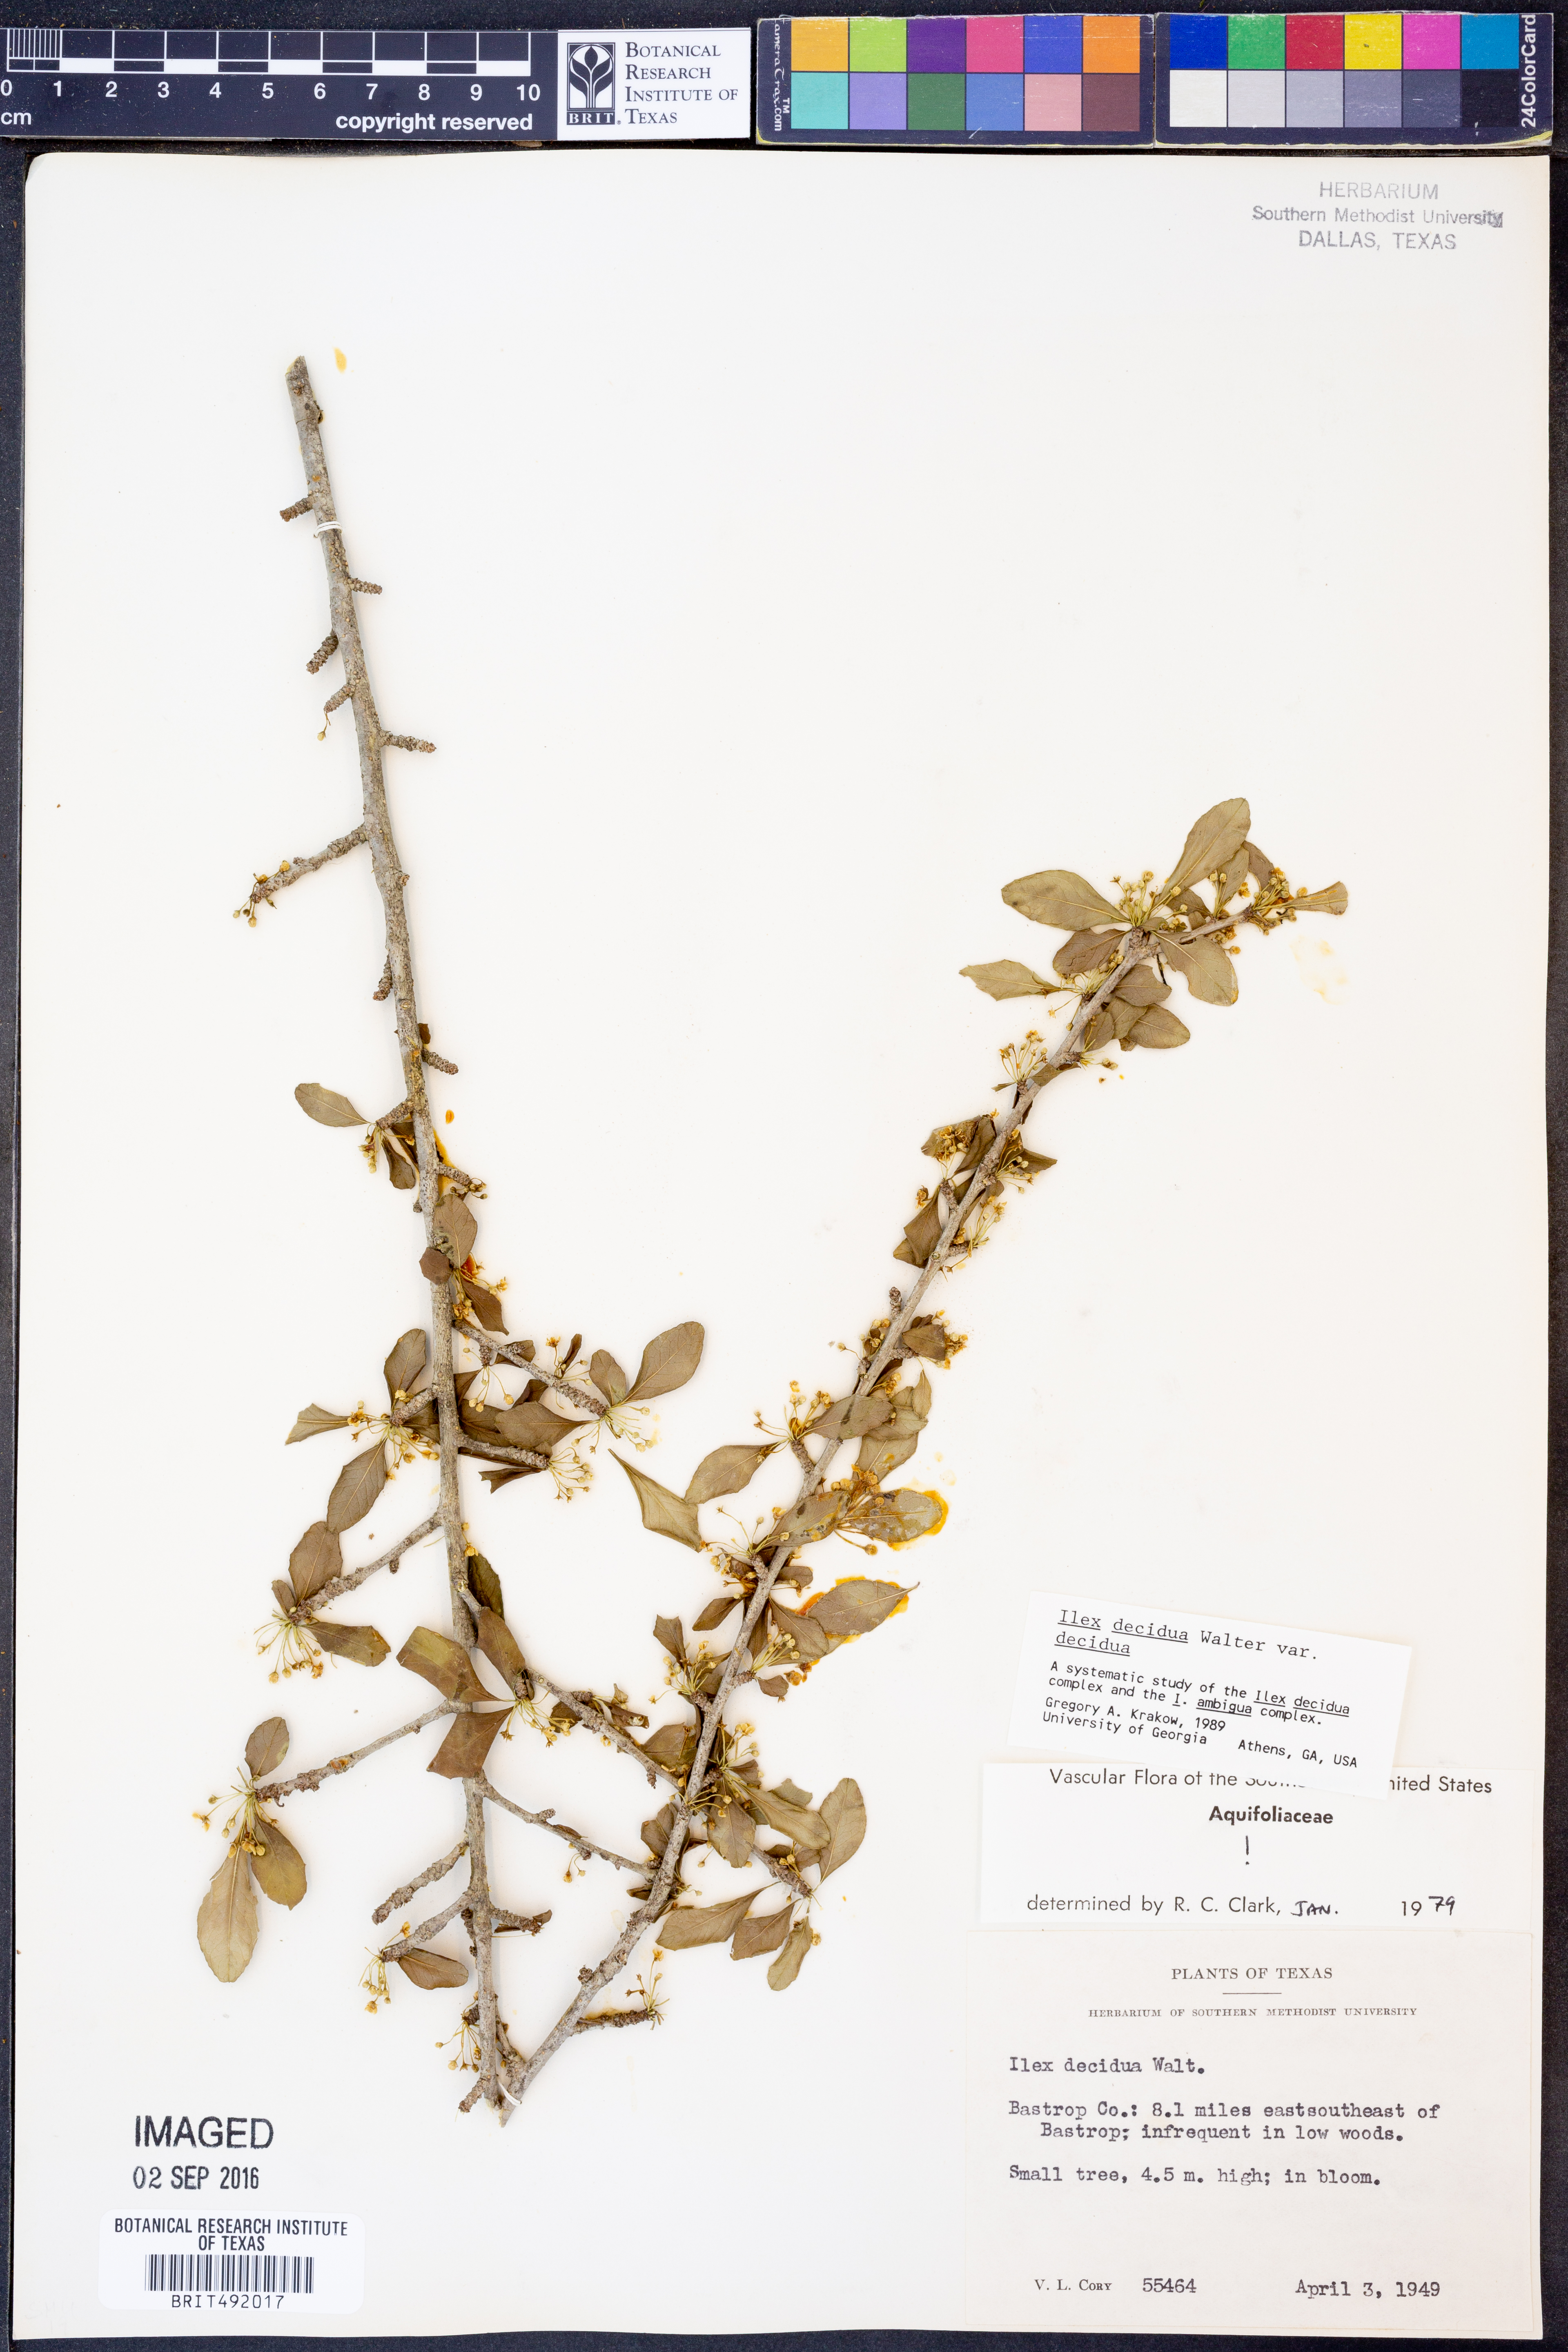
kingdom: Plantae
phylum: Tracheophyta
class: Magnoliopsida
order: Aquifoliales
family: Aquifoliaceae
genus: Ilex
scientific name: Ilex decidua
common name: Possum-haw
